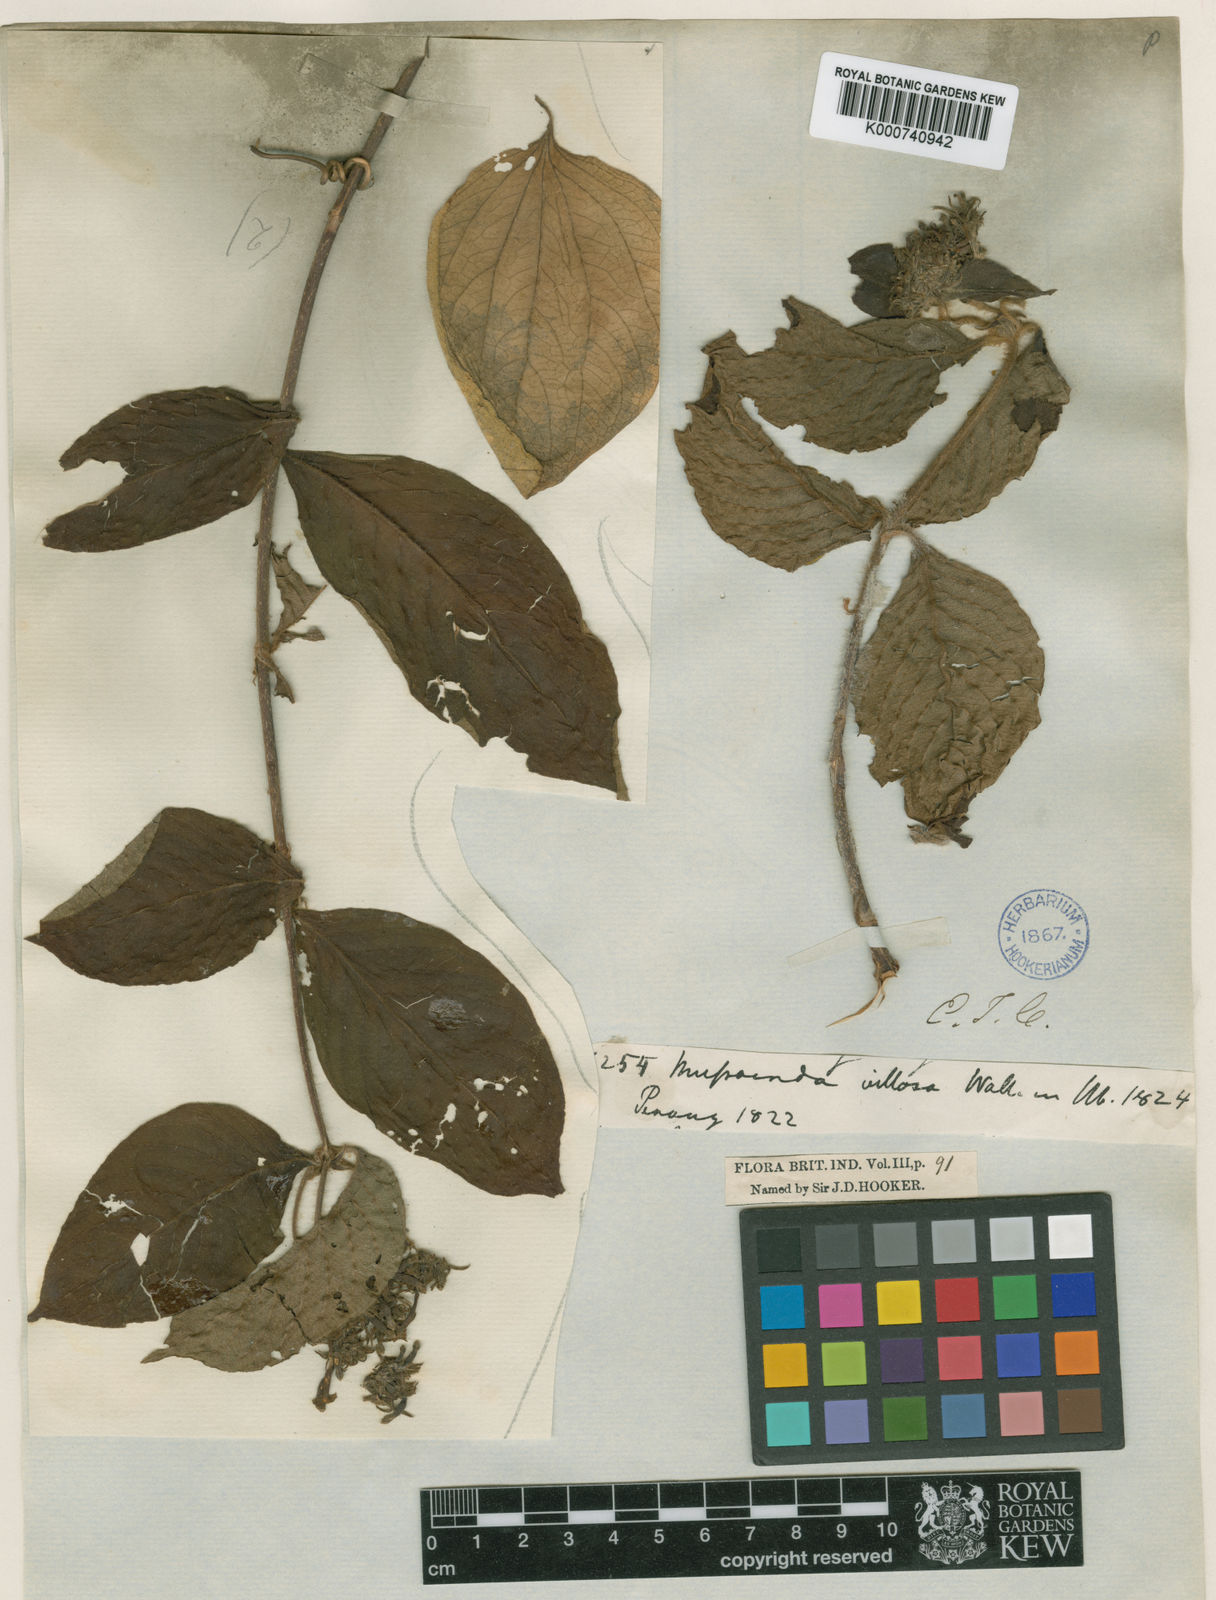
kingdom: Plantae
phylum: Tracheophyta
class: Magnoliopsida
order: Gentianales
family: Rubiaceae
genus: Mussaenda
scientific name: Mussaenda
